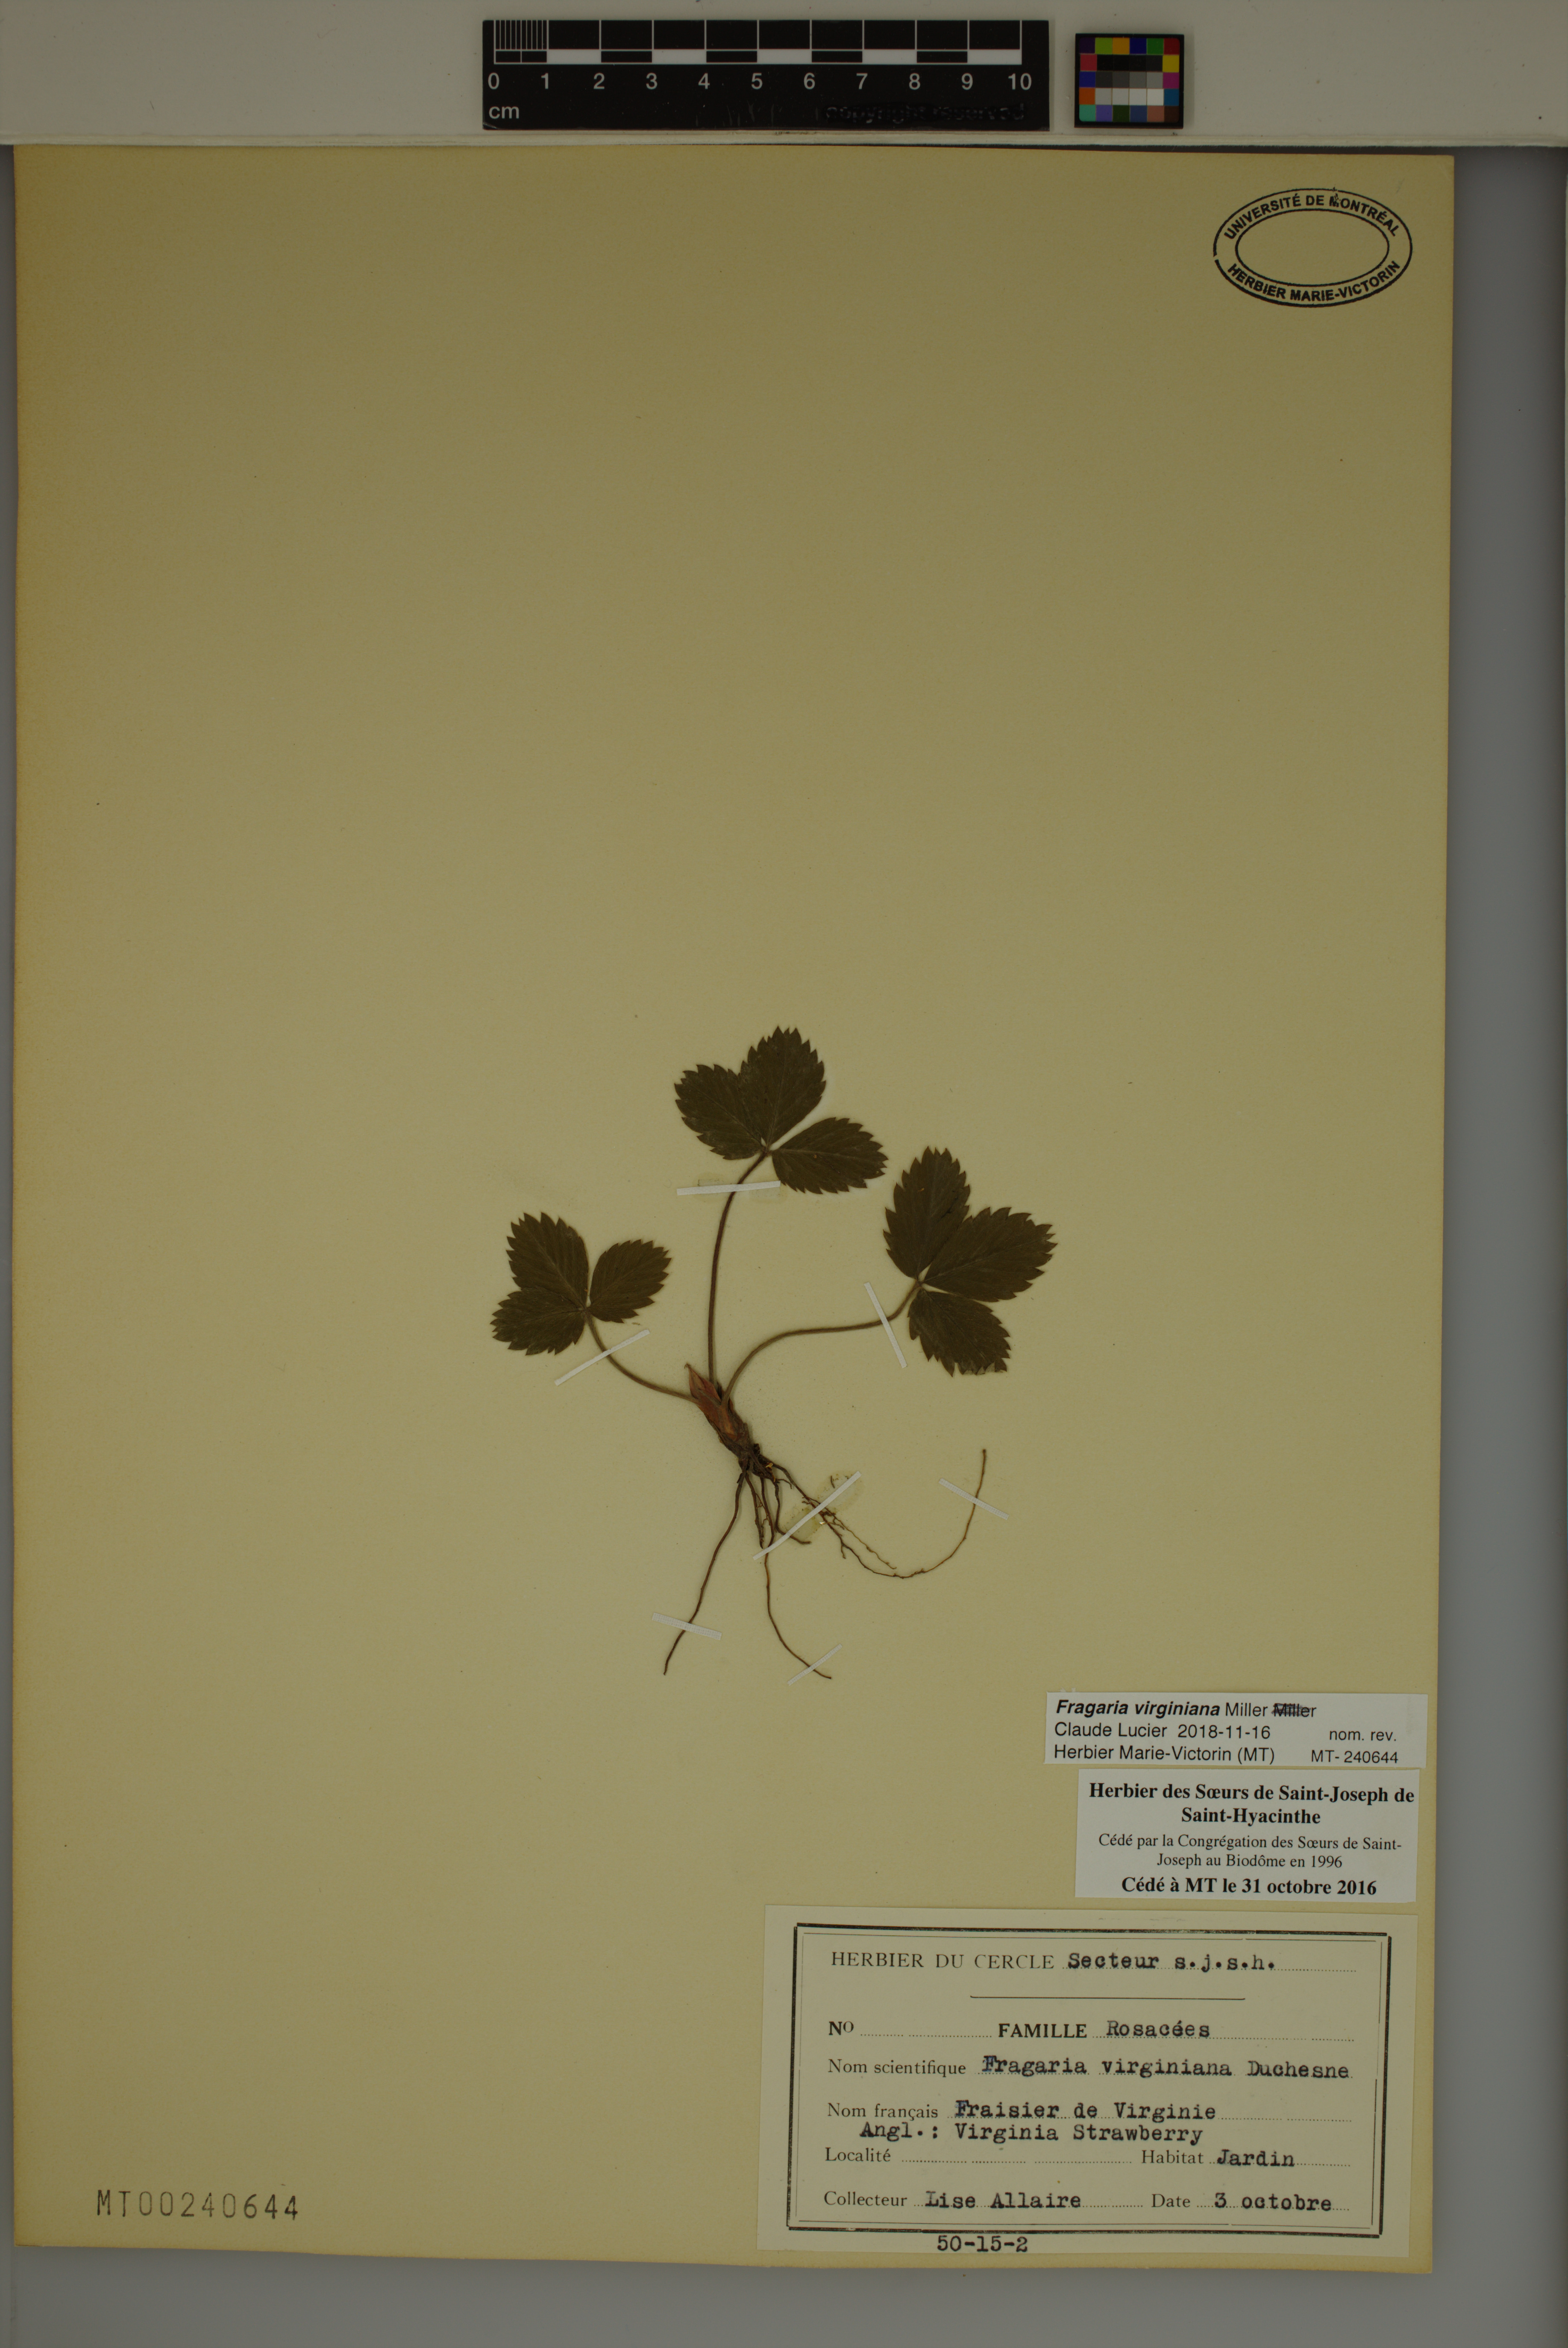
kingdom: Plantae
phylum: Tracheophyta
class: Magnoliopsida
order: Rosales
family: Rosaceae
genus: Fragaria
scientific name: Fragaria virginiana
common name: Thickleaved wild strawberry
